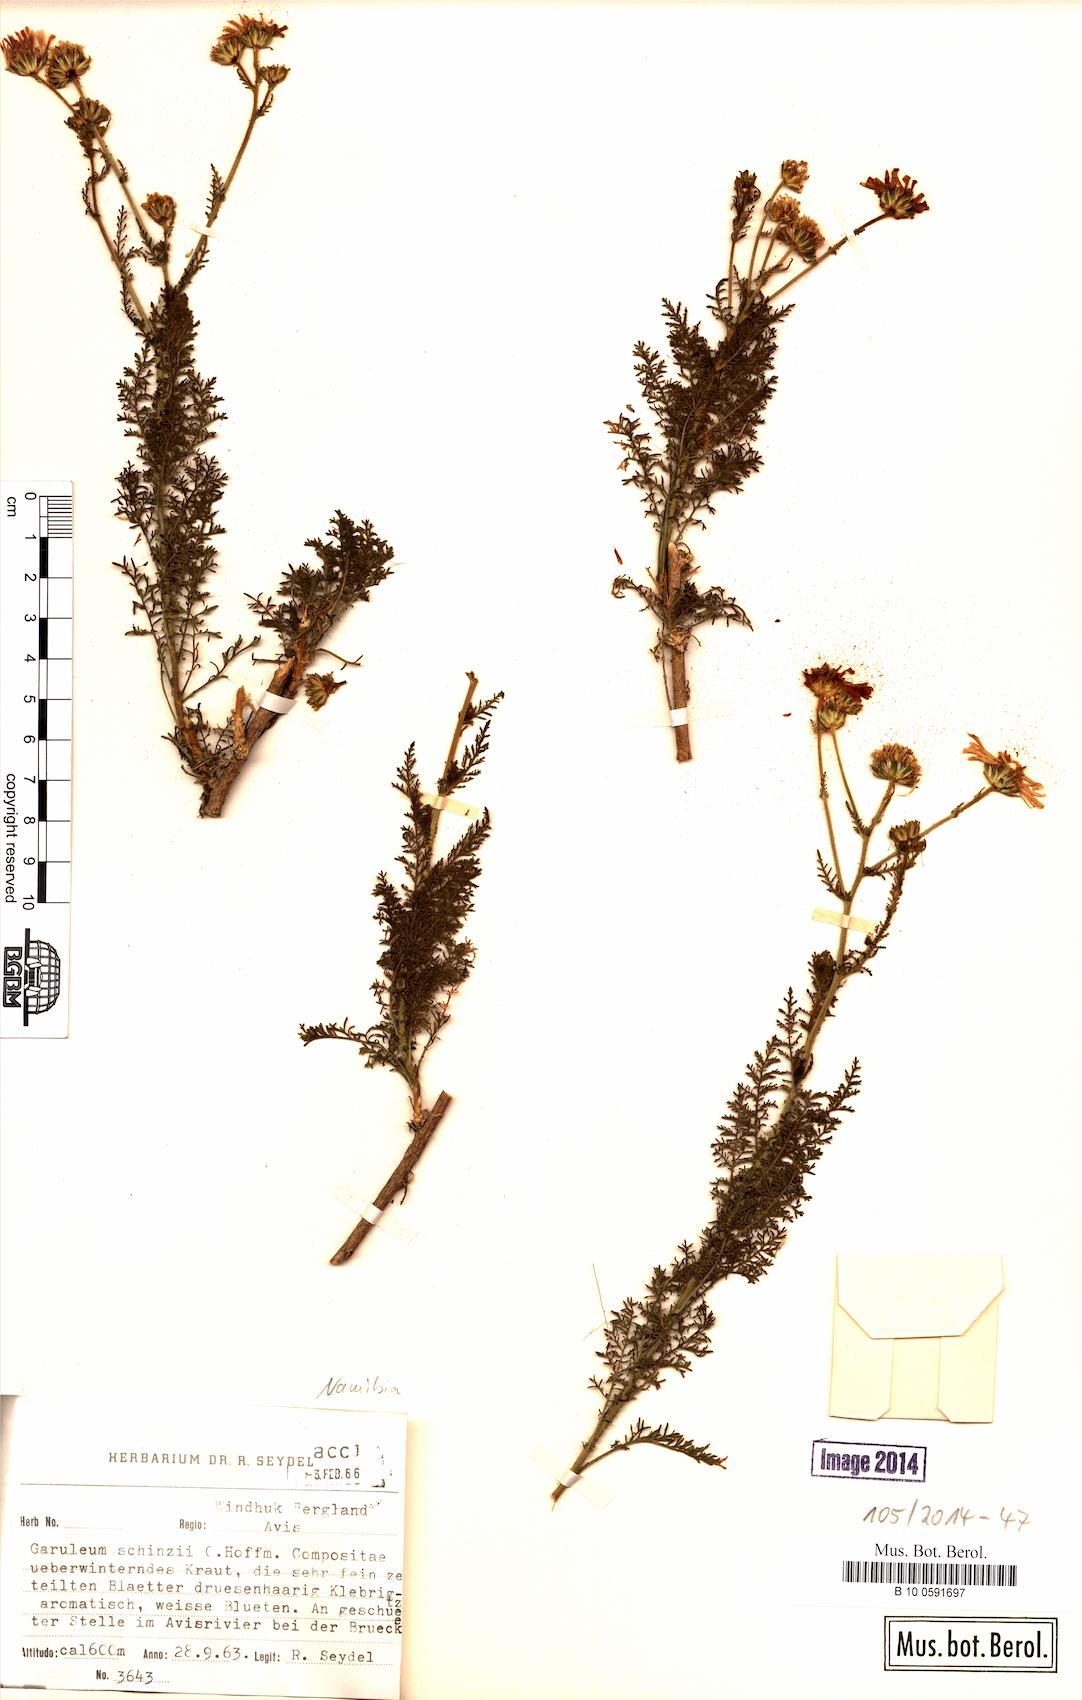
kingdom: Plantae
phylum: Tracheophyta
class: Magnoliopsida
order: Asterales
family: Asteraceae
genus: Garuleum
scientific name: Garuleum schinzii
